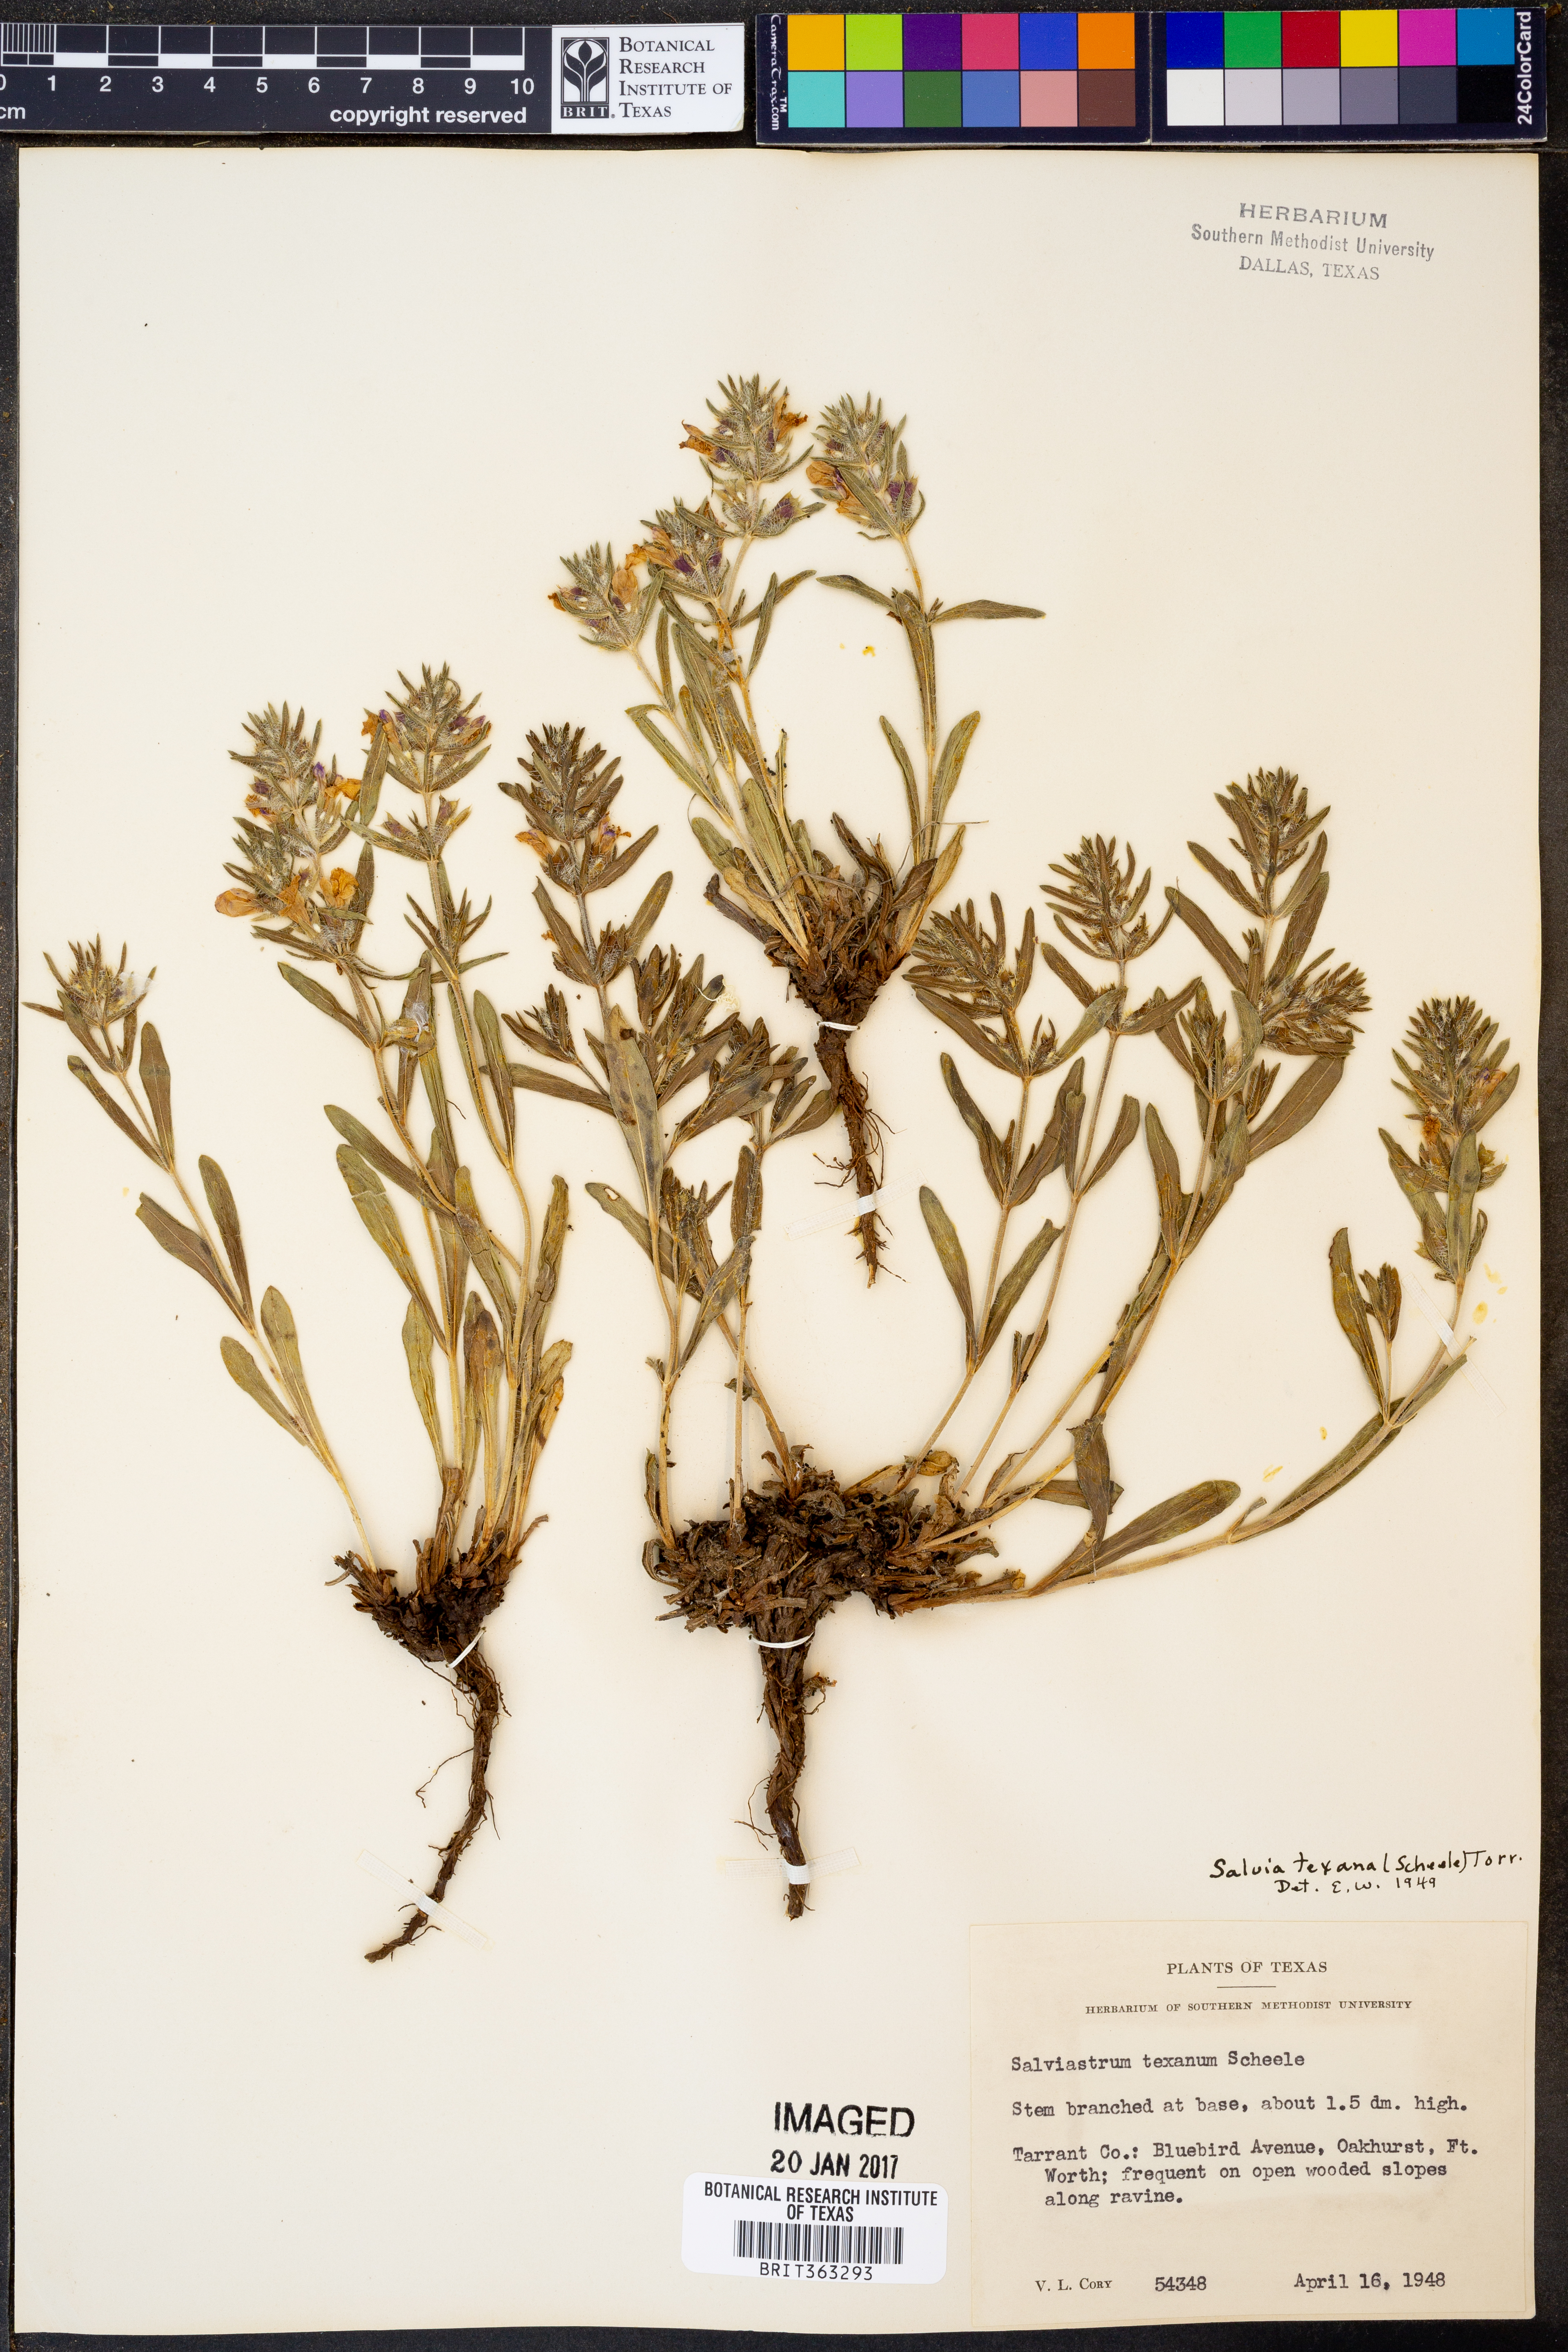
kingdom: Plantae
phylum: Tracheophyta
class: Magnoliopsida
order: Lamiales
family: Lamiaceae
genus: Salvia
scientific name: Salvia texana
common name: Texas sage
